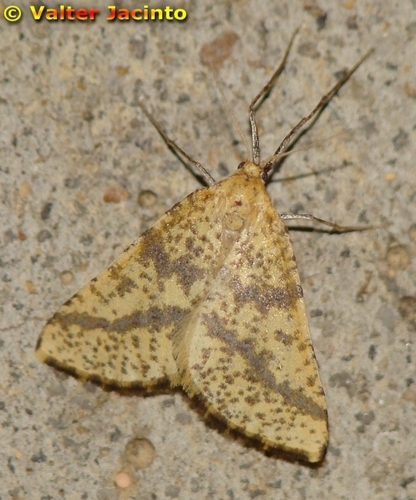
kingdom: Animalia
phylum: Arthropoda
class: Insecta
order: Lepidoptera
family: Geometridae
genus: Aspitates
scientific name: Aspitates ochrearia
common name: Yellow belle
